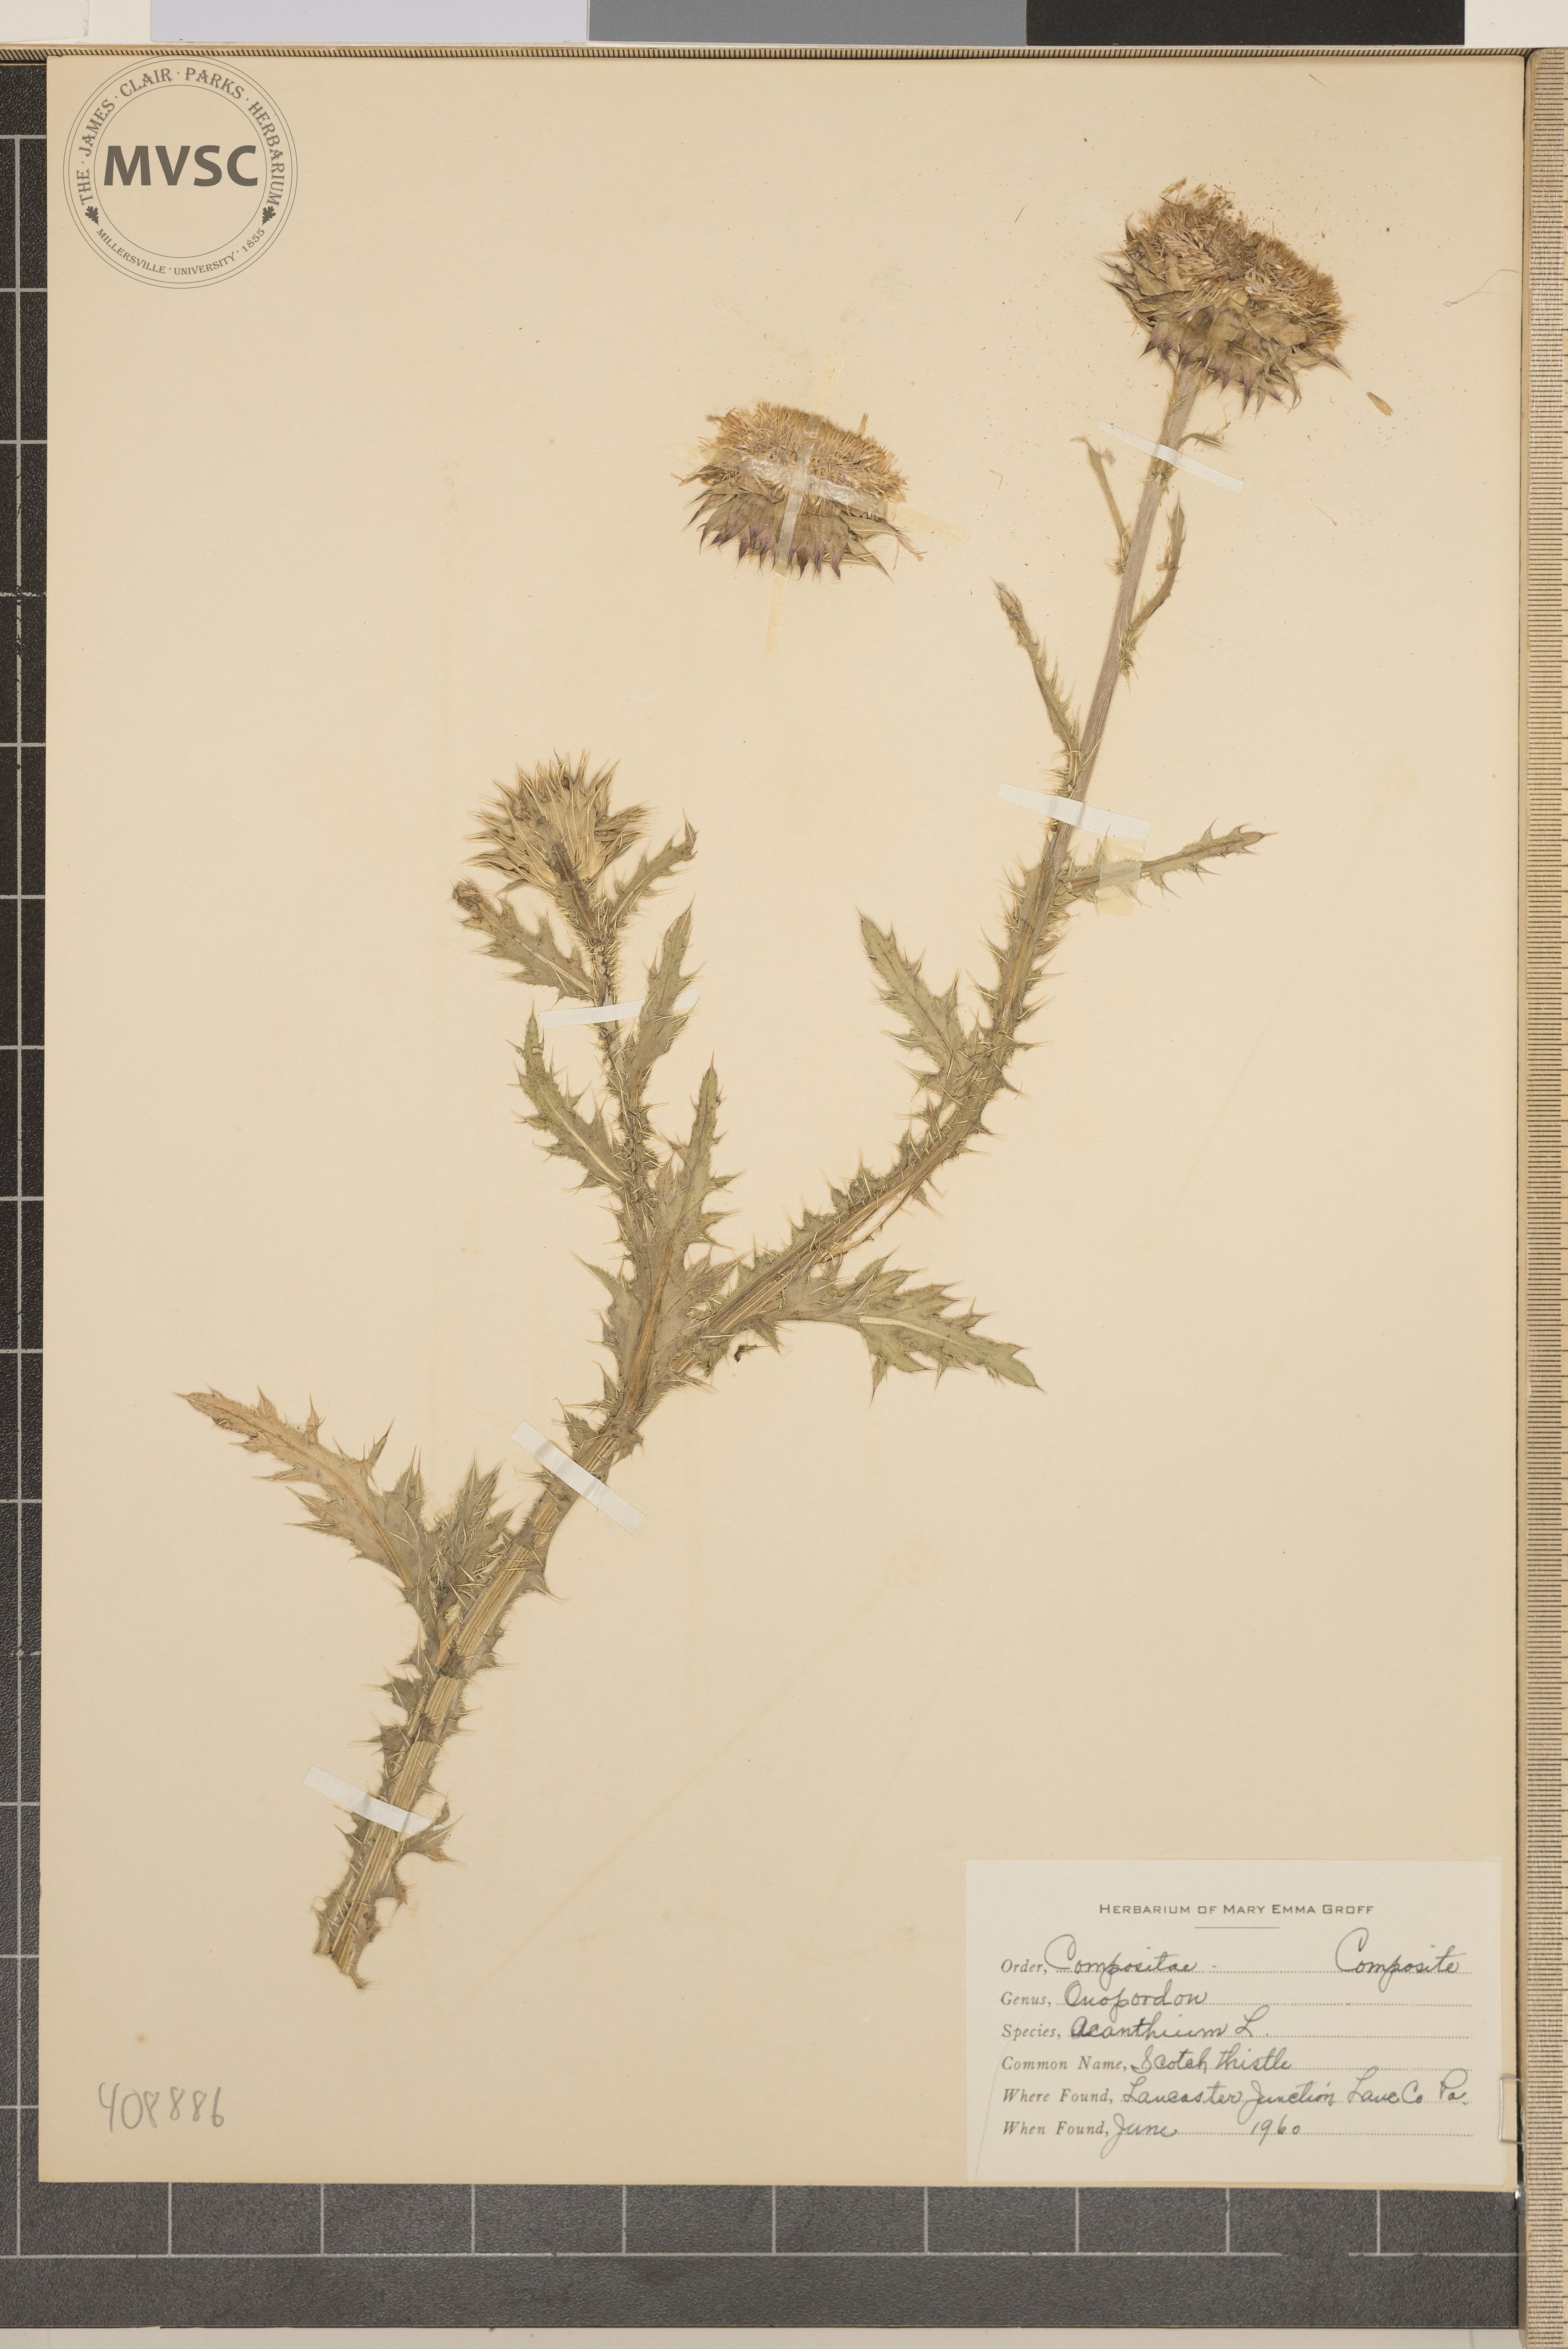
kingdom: Plantae
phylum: Tracheophyta
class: Magnoliopsida
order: Asterales
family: Asteraceae
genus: Carduus
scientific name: Carduus nutans
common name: Musk thistle
